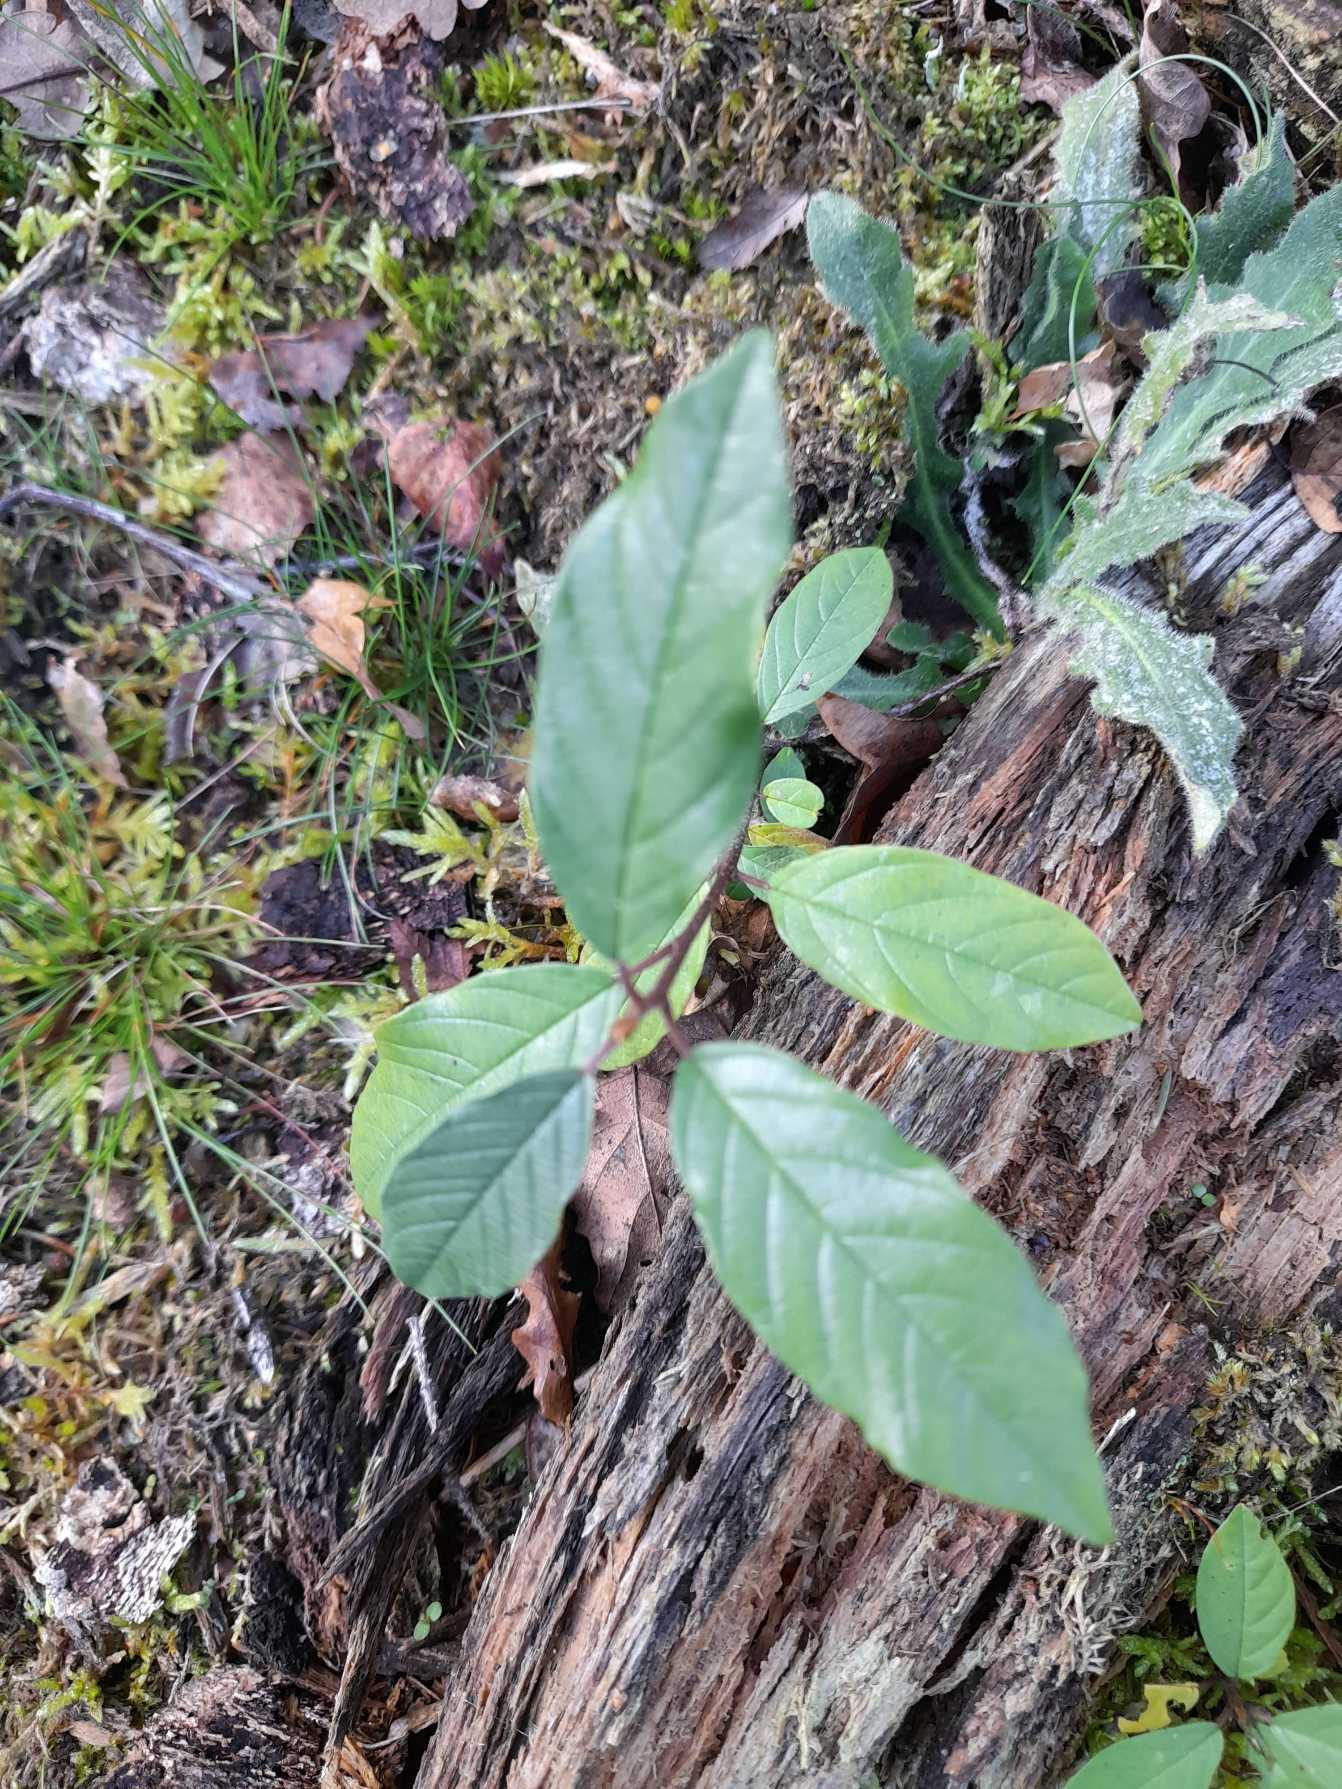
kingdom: Plantae
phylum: Tracheophyta
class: Magnoliopsida
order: Rosales
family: Rhamnaceae
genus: Frangula
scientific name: Frangula alnus
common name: Tørst
